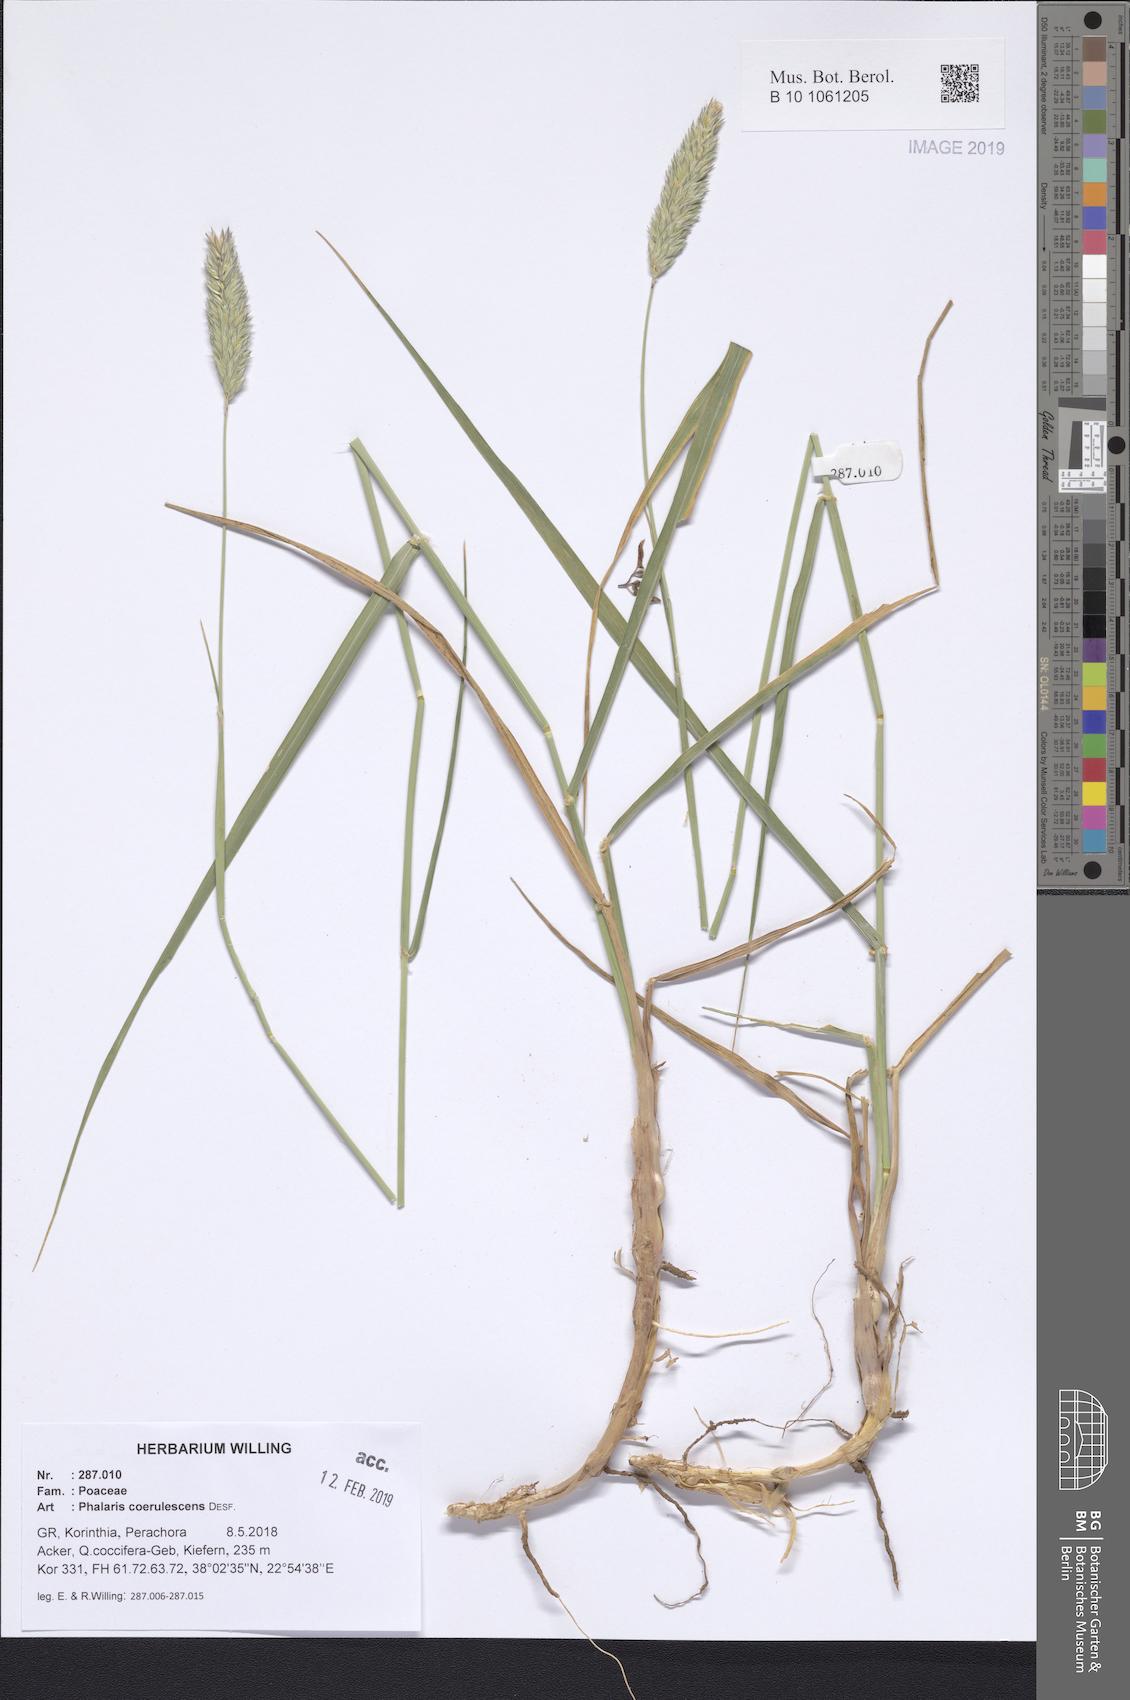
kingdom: Plantae
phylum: Tracheophyta
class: Liliopsida
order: Poales
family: Poaceae
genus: Phalaris
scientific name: Phalaris coerulescens
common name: Sunolgrass
